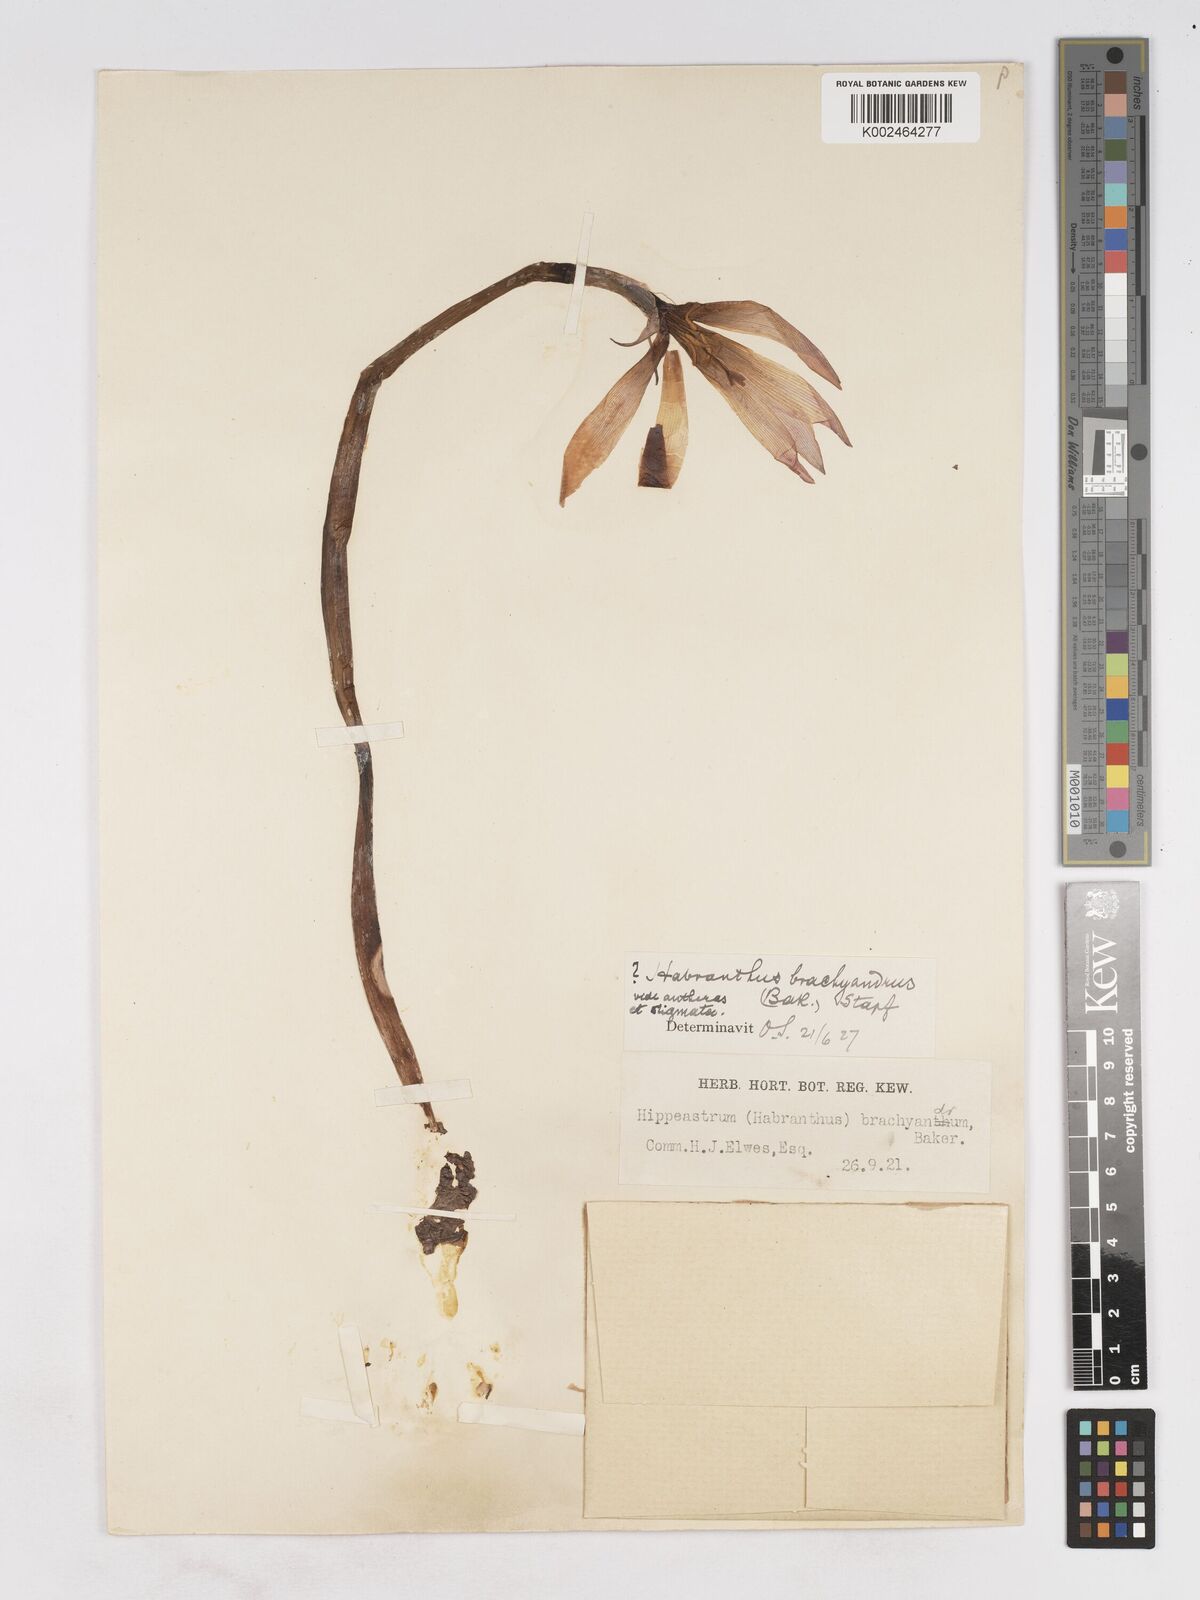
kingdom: Plantae
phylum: Tracheophyta
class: Liliopsida
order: Asparagales
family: Amaryllidaceae
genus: Zephyranthes
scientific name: Zephyranthes brachyandra
